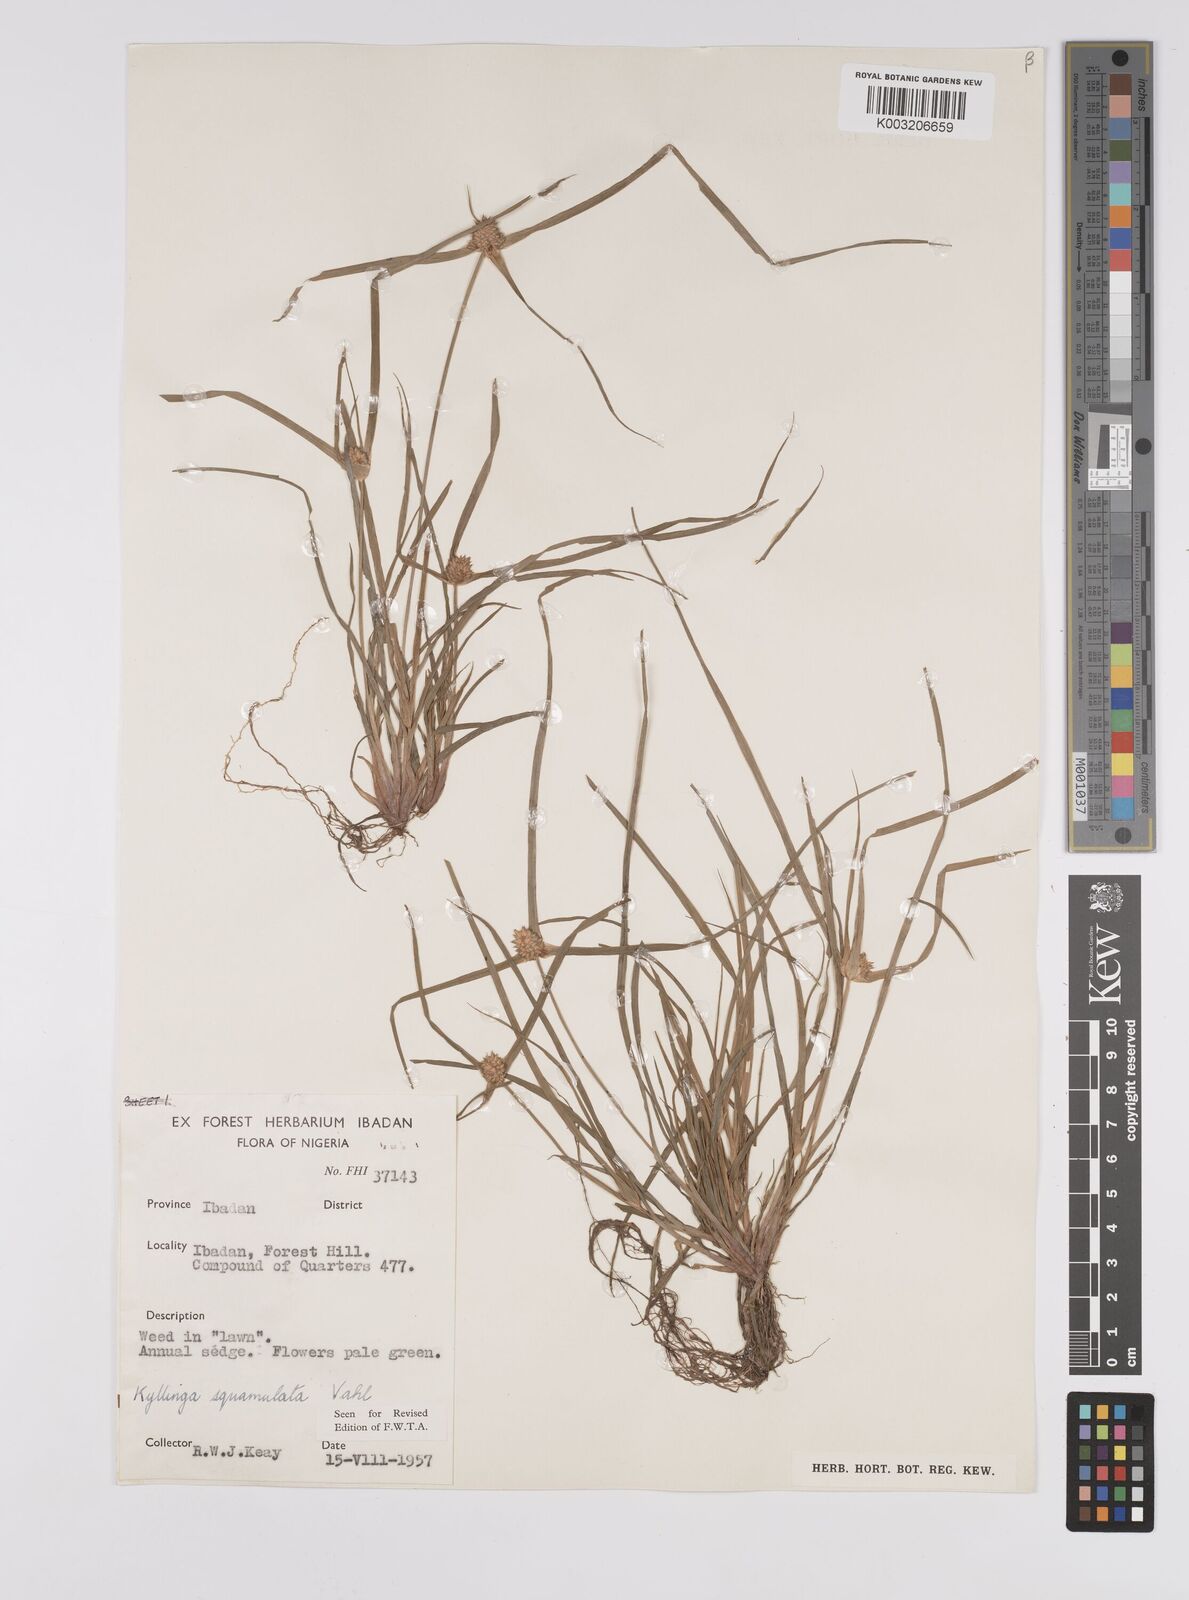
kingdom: Plantae
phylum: Tracheophyta
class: Liliopsida
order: Poales
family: Cyperaceae
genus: Cyperus
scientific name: Cyperus distans
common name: Slender cyperus
